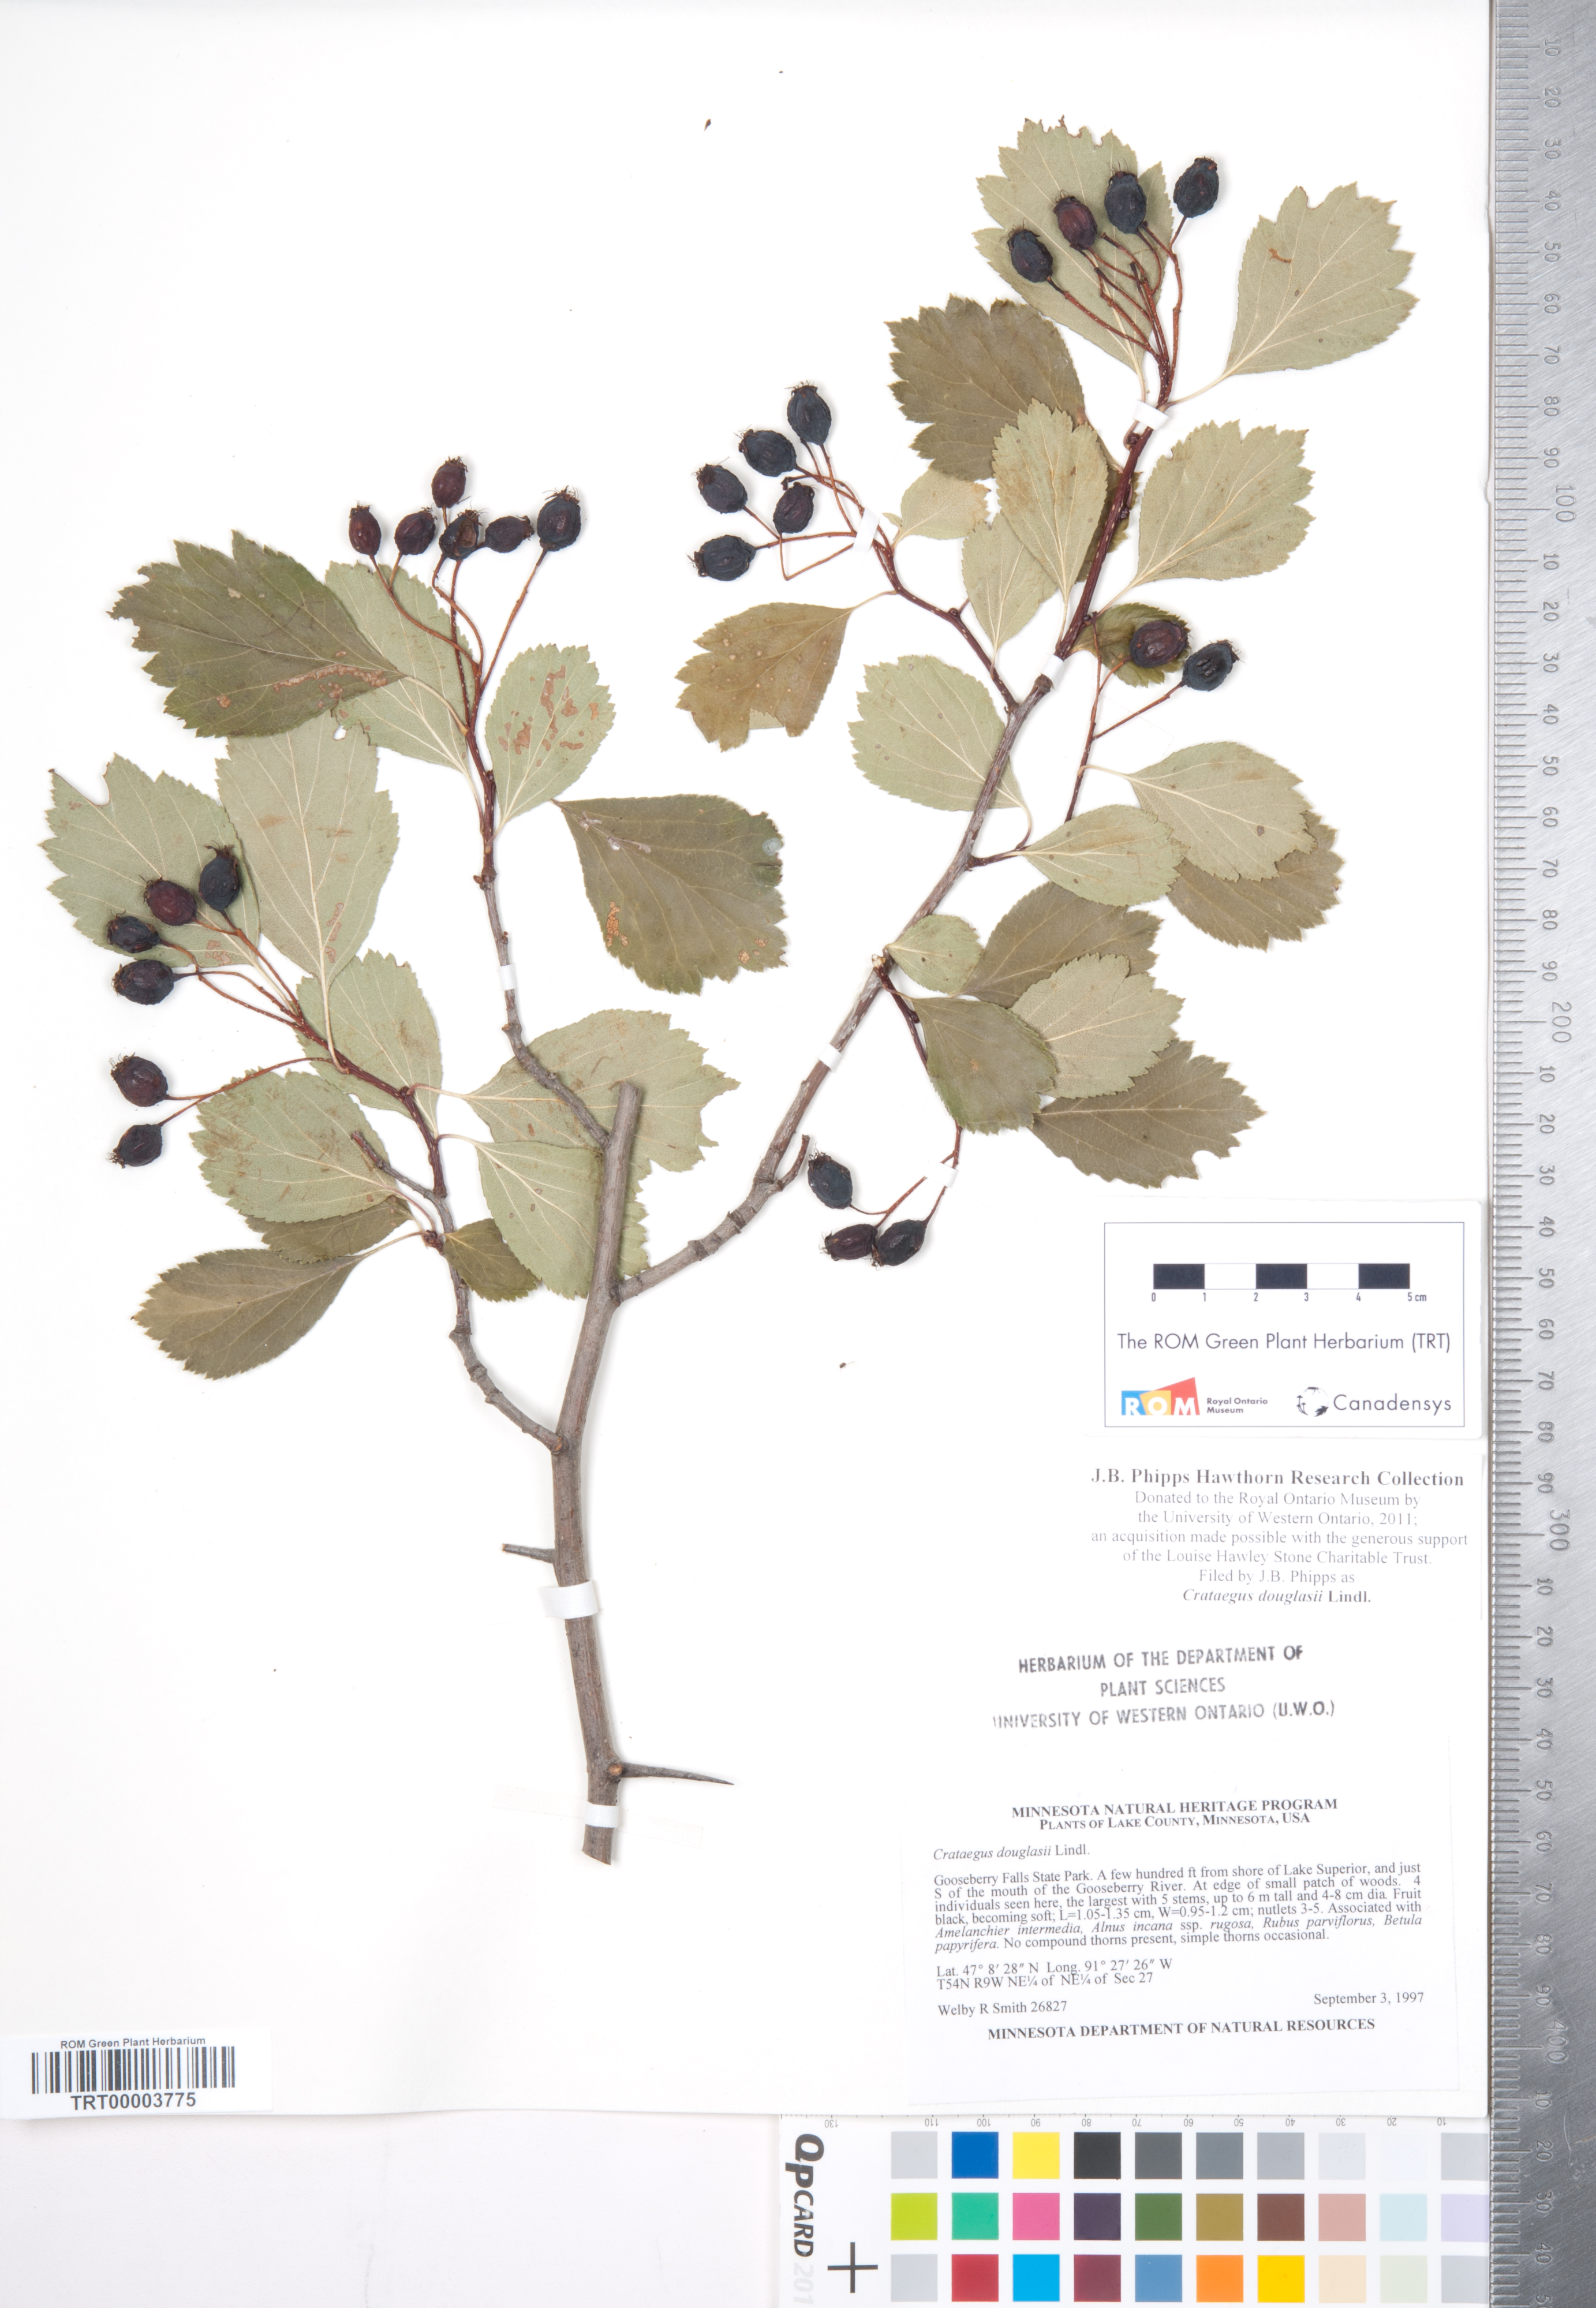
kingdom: Plantae
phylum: Tracheophyta
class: Magnoliopsida
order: Rosales
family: Rosaceae
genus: Crataegus
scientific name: Crataegus douglasii
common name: Black hawthorn
